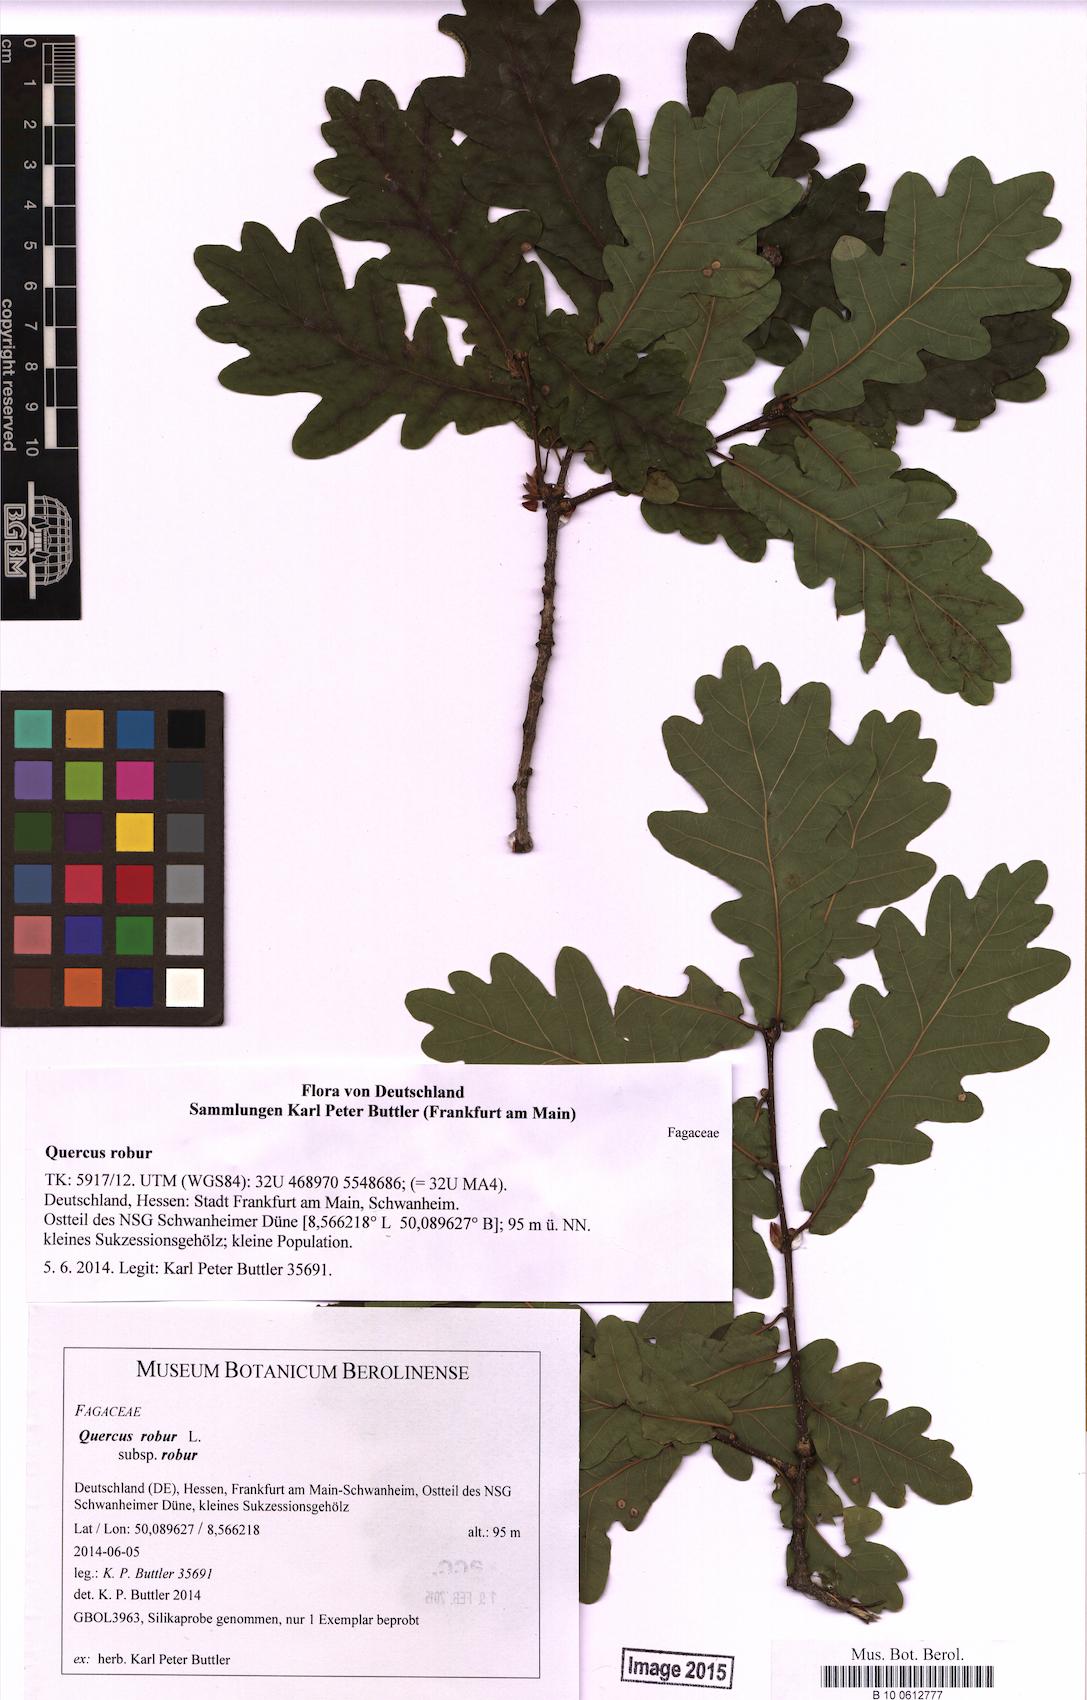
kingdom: Plantae
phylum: Tracheophyta
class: Magnoliopsida
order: Fagales
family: Fagaceae
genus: Quercus
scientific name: Quercus robur
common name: Pedunculate oak
